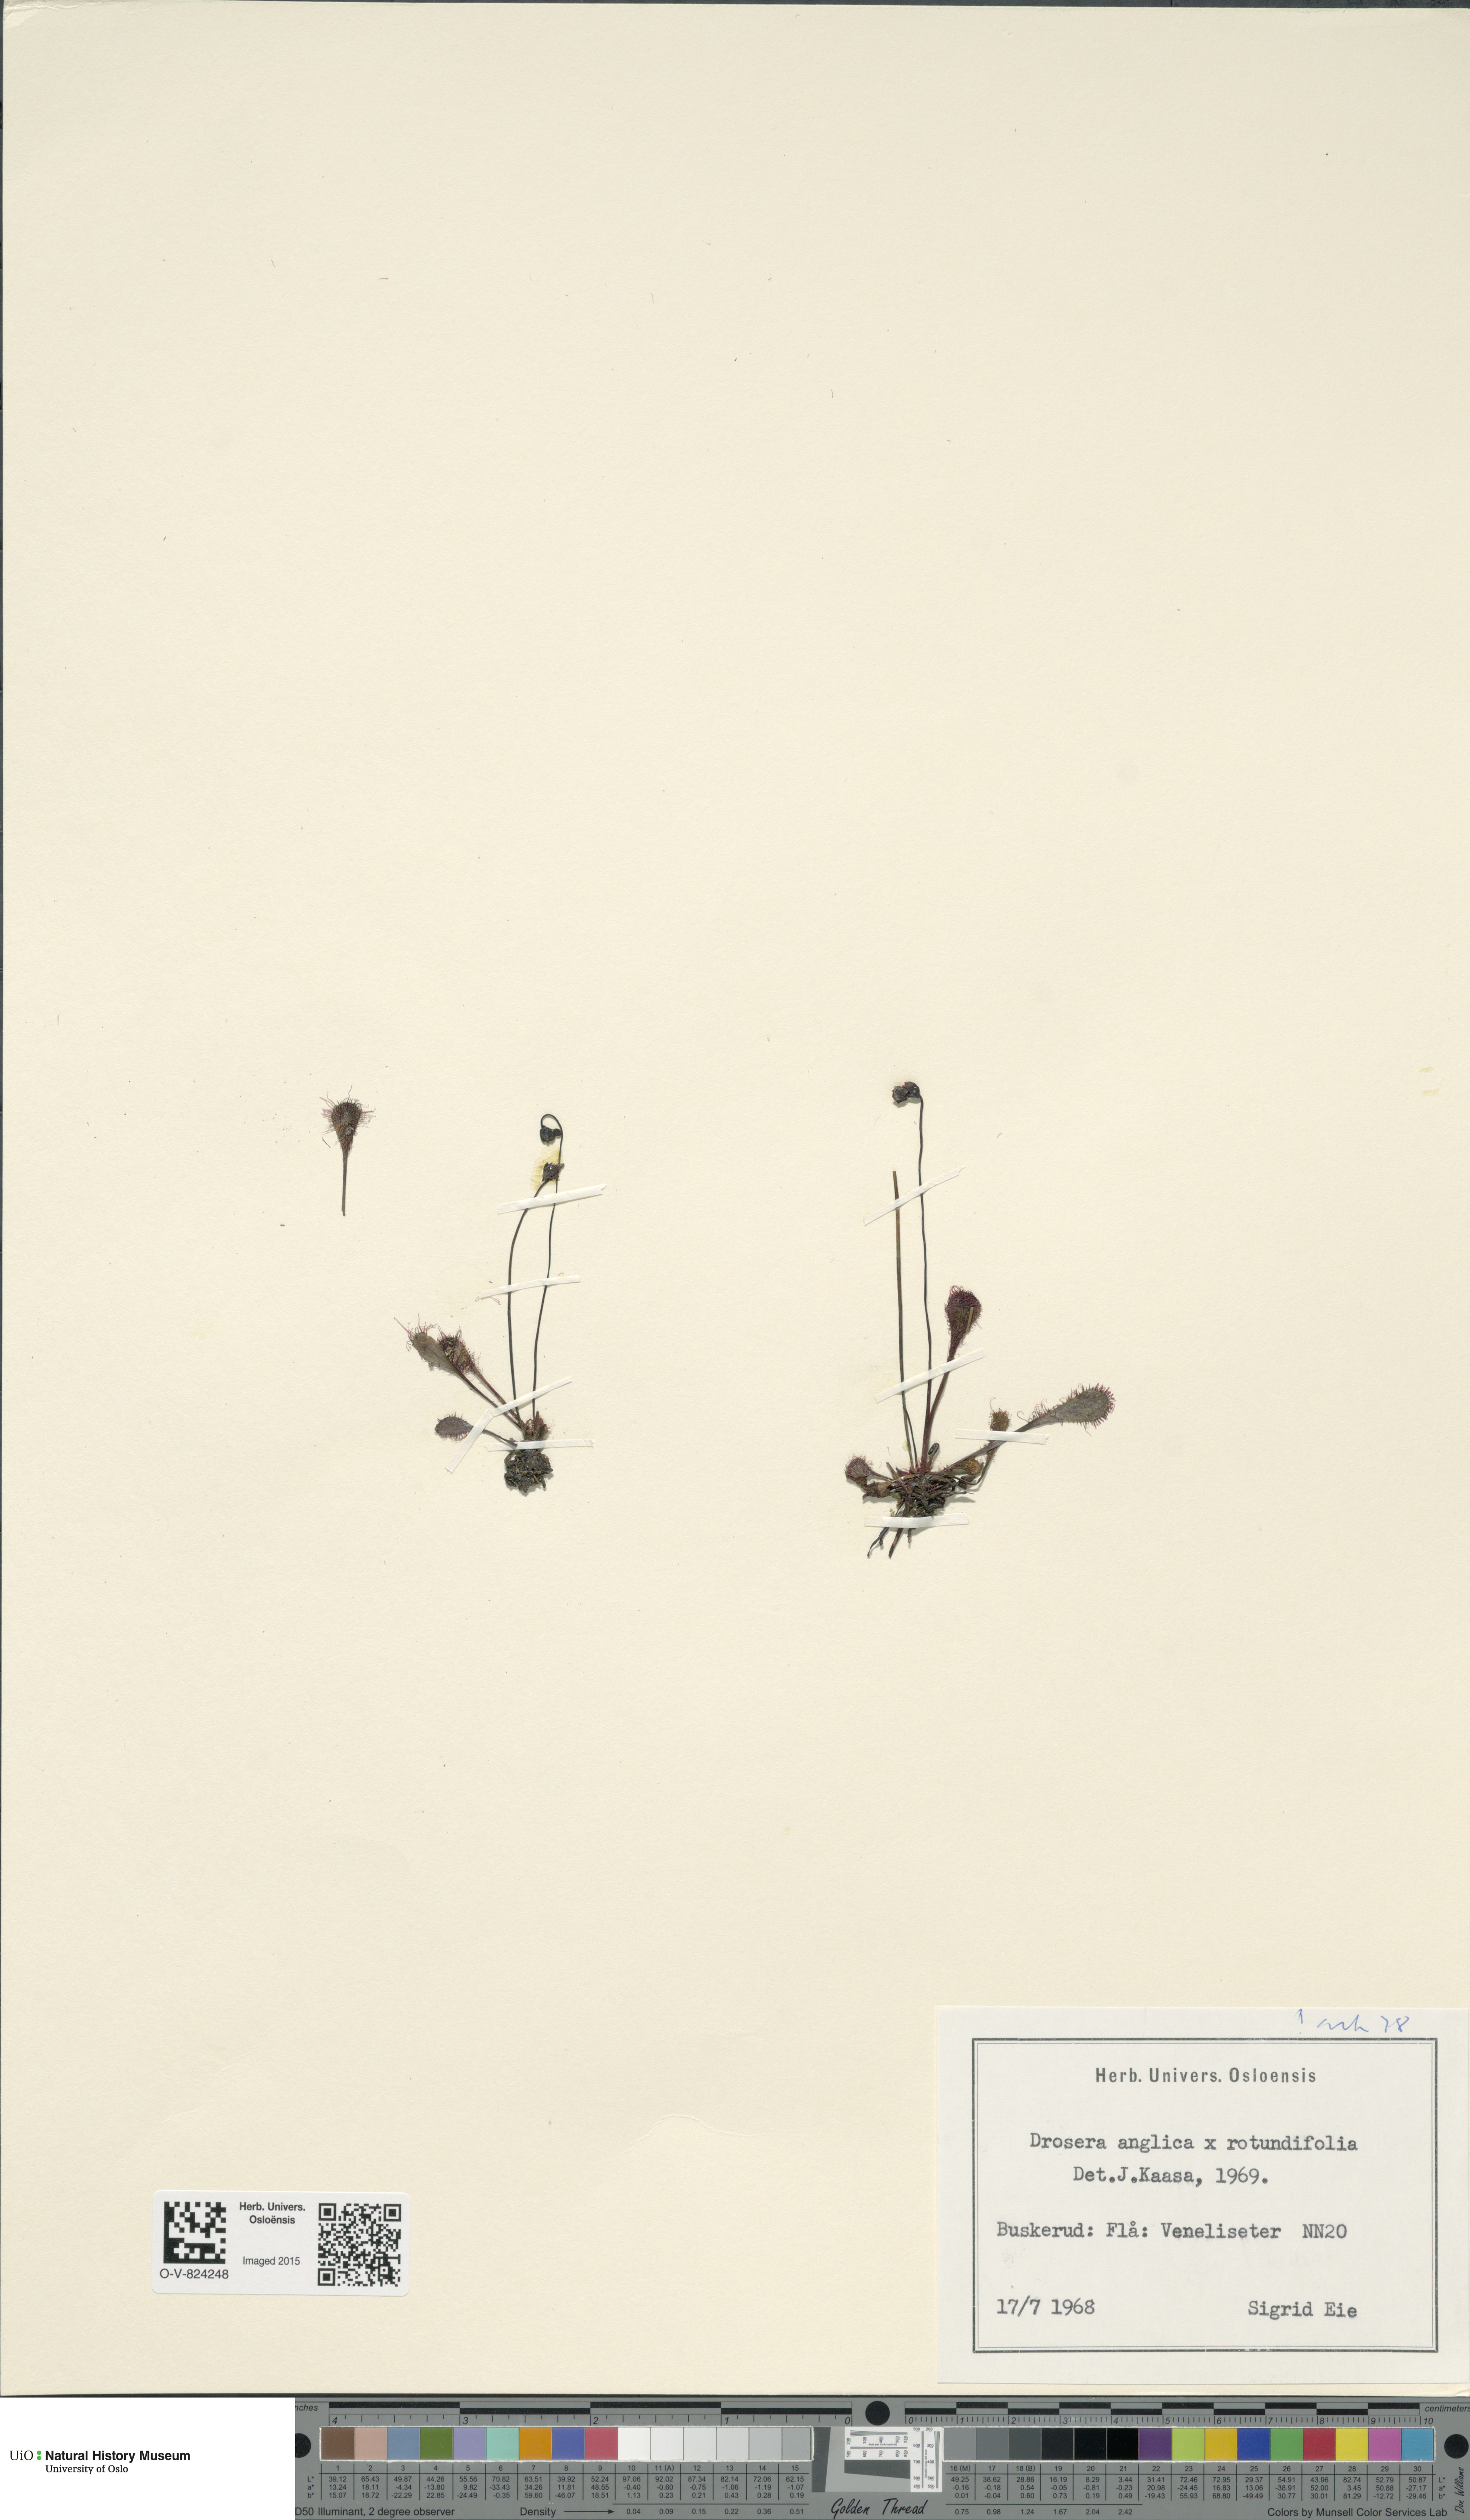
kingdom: Plantae
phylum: Tracheophyta
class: Magnoliopsida
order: Caryophyllales
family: Droseraceae
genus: Drosera
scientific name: Drosera
